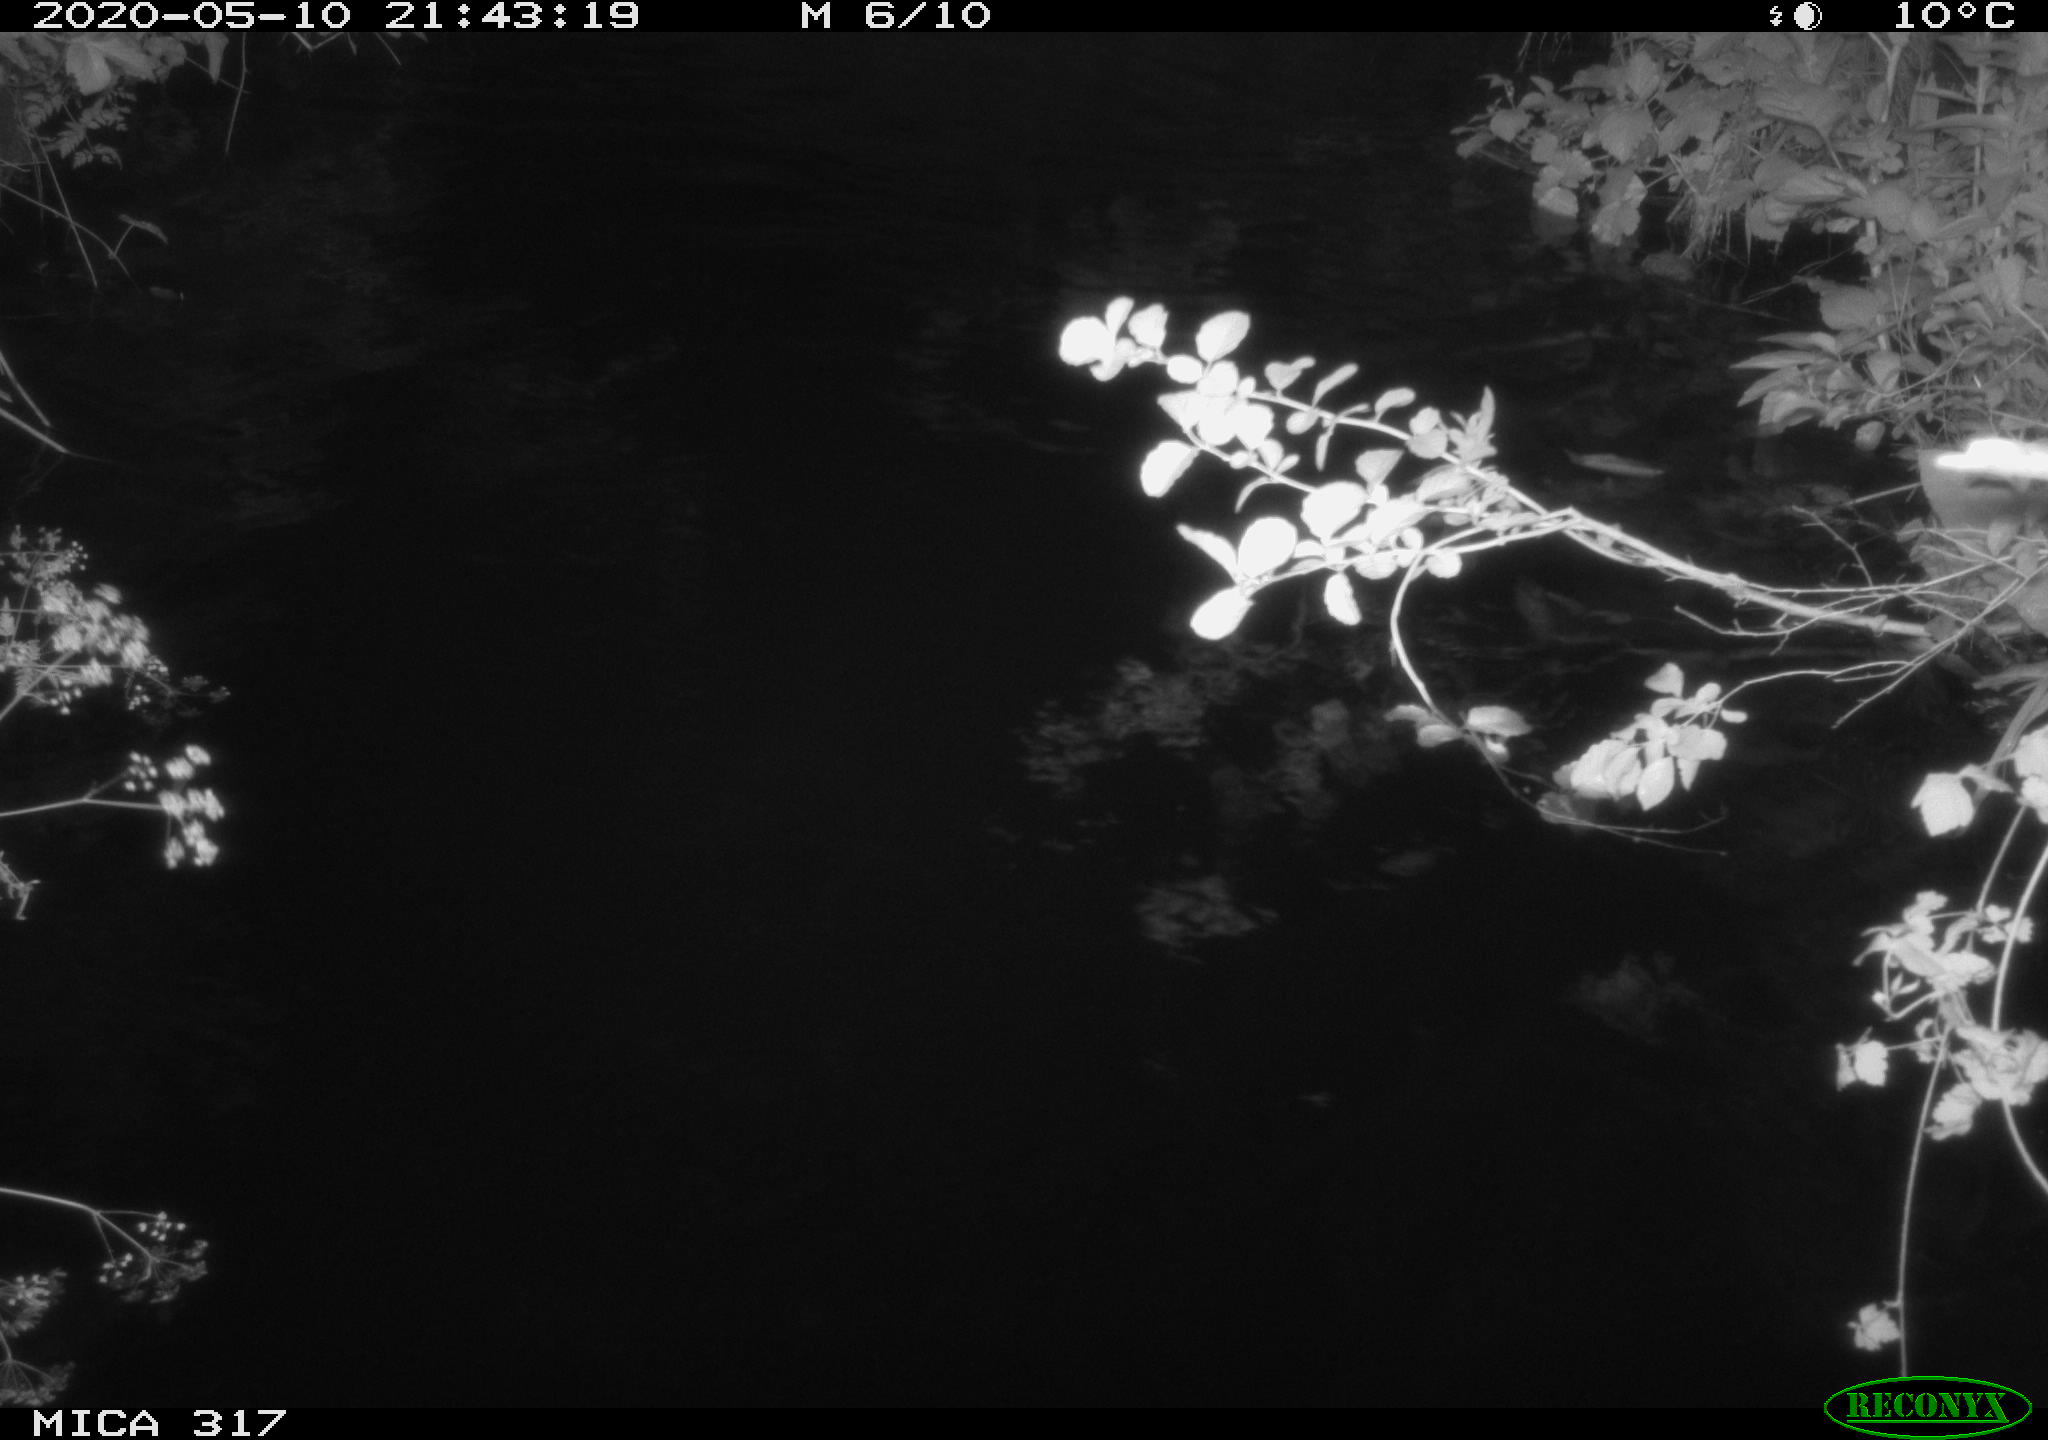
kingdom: Animalia
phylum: Chordata
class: Aves
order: Anseriformes
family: Anatidae
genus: Anas
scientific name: Anas platyrhynchos
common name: Mallard
